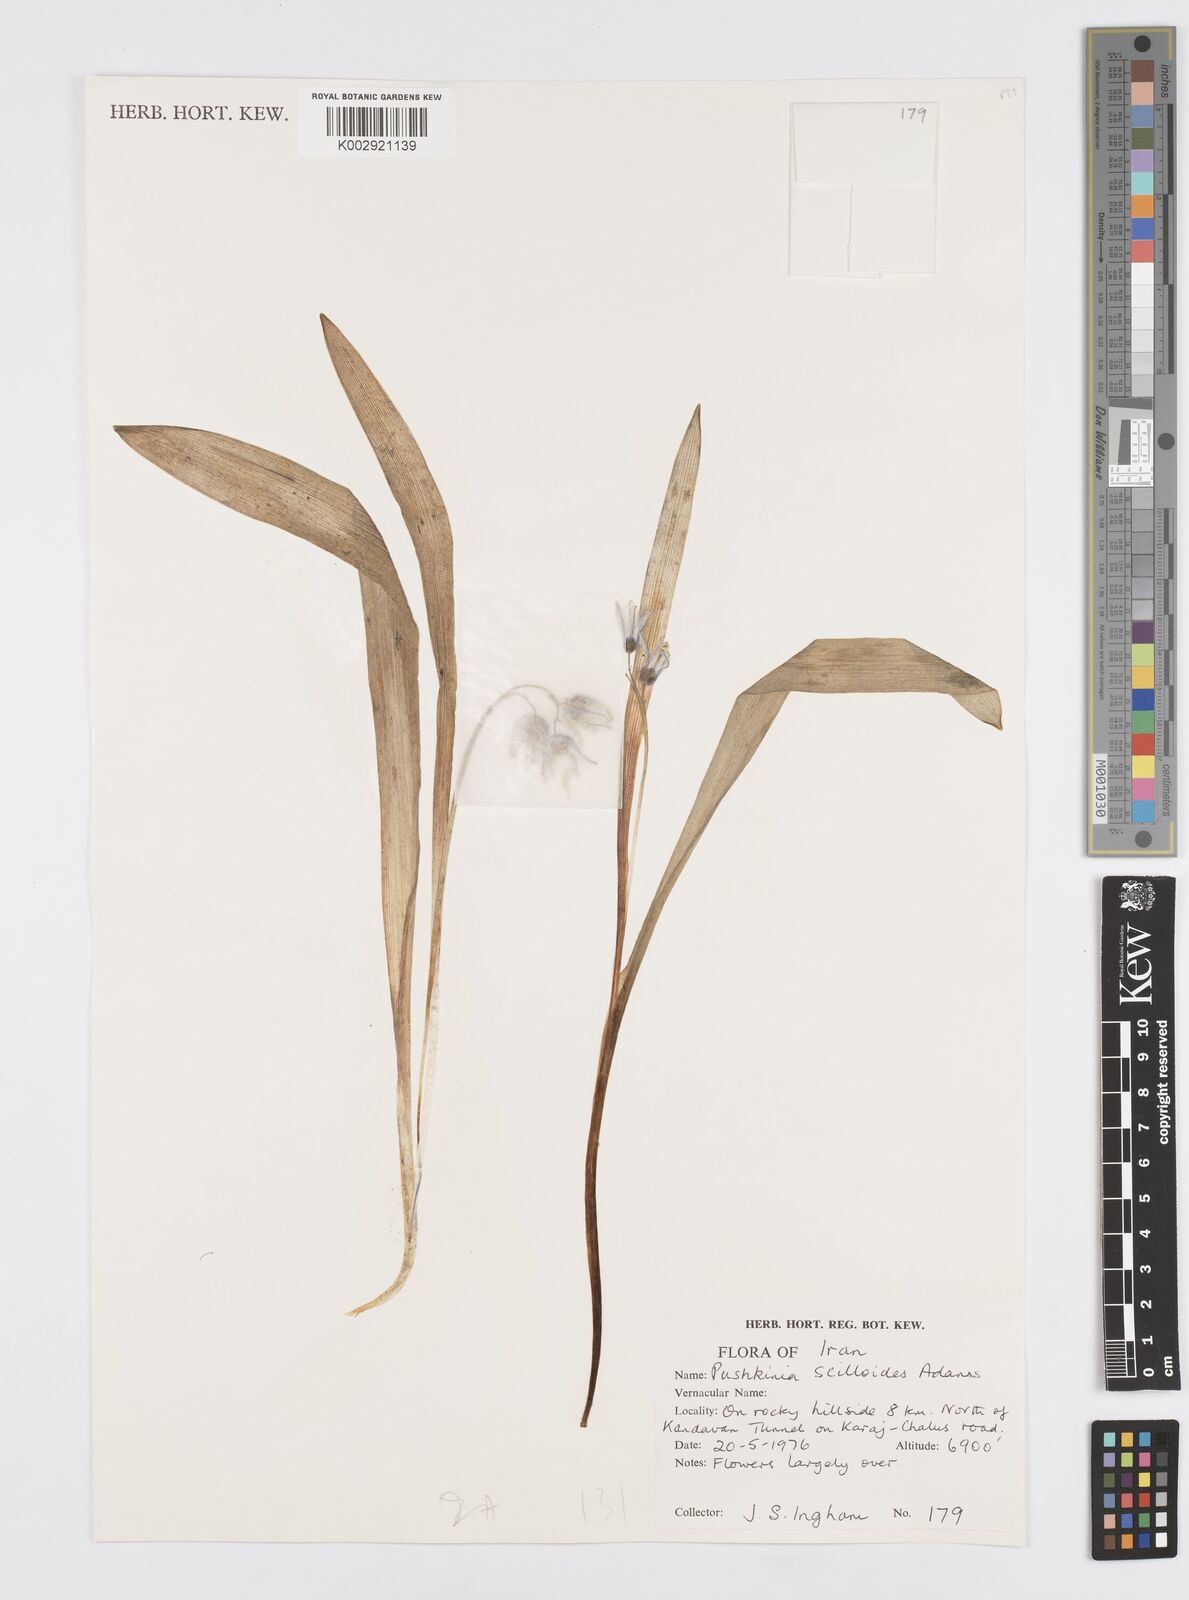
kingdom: Plantae
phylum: Tracheophyta
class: Liliopsida
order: Asparagales
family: Asparagaceae
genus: Puschkinia
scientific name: Puschkinia scilloides
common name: Striped squill
